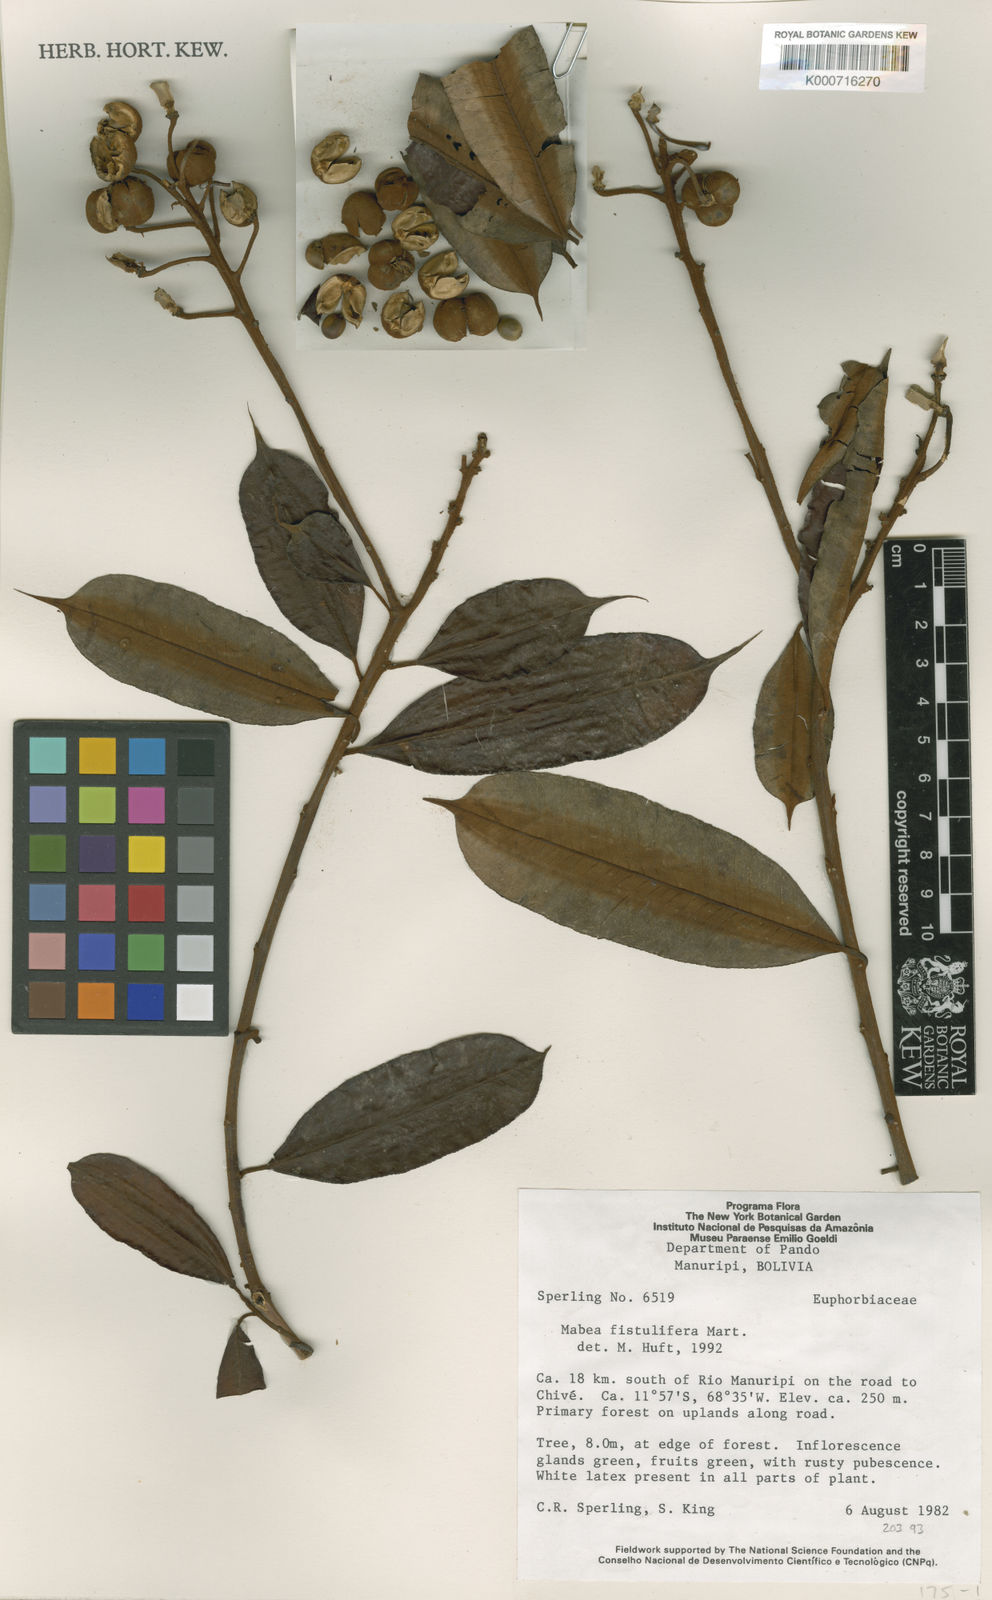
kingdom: Plantae
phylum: Tracheophyta
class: Magnoliopsida
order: Malpighiales
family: Euphorbiaceae
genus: Mabea
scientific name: Mabea fistulifera
